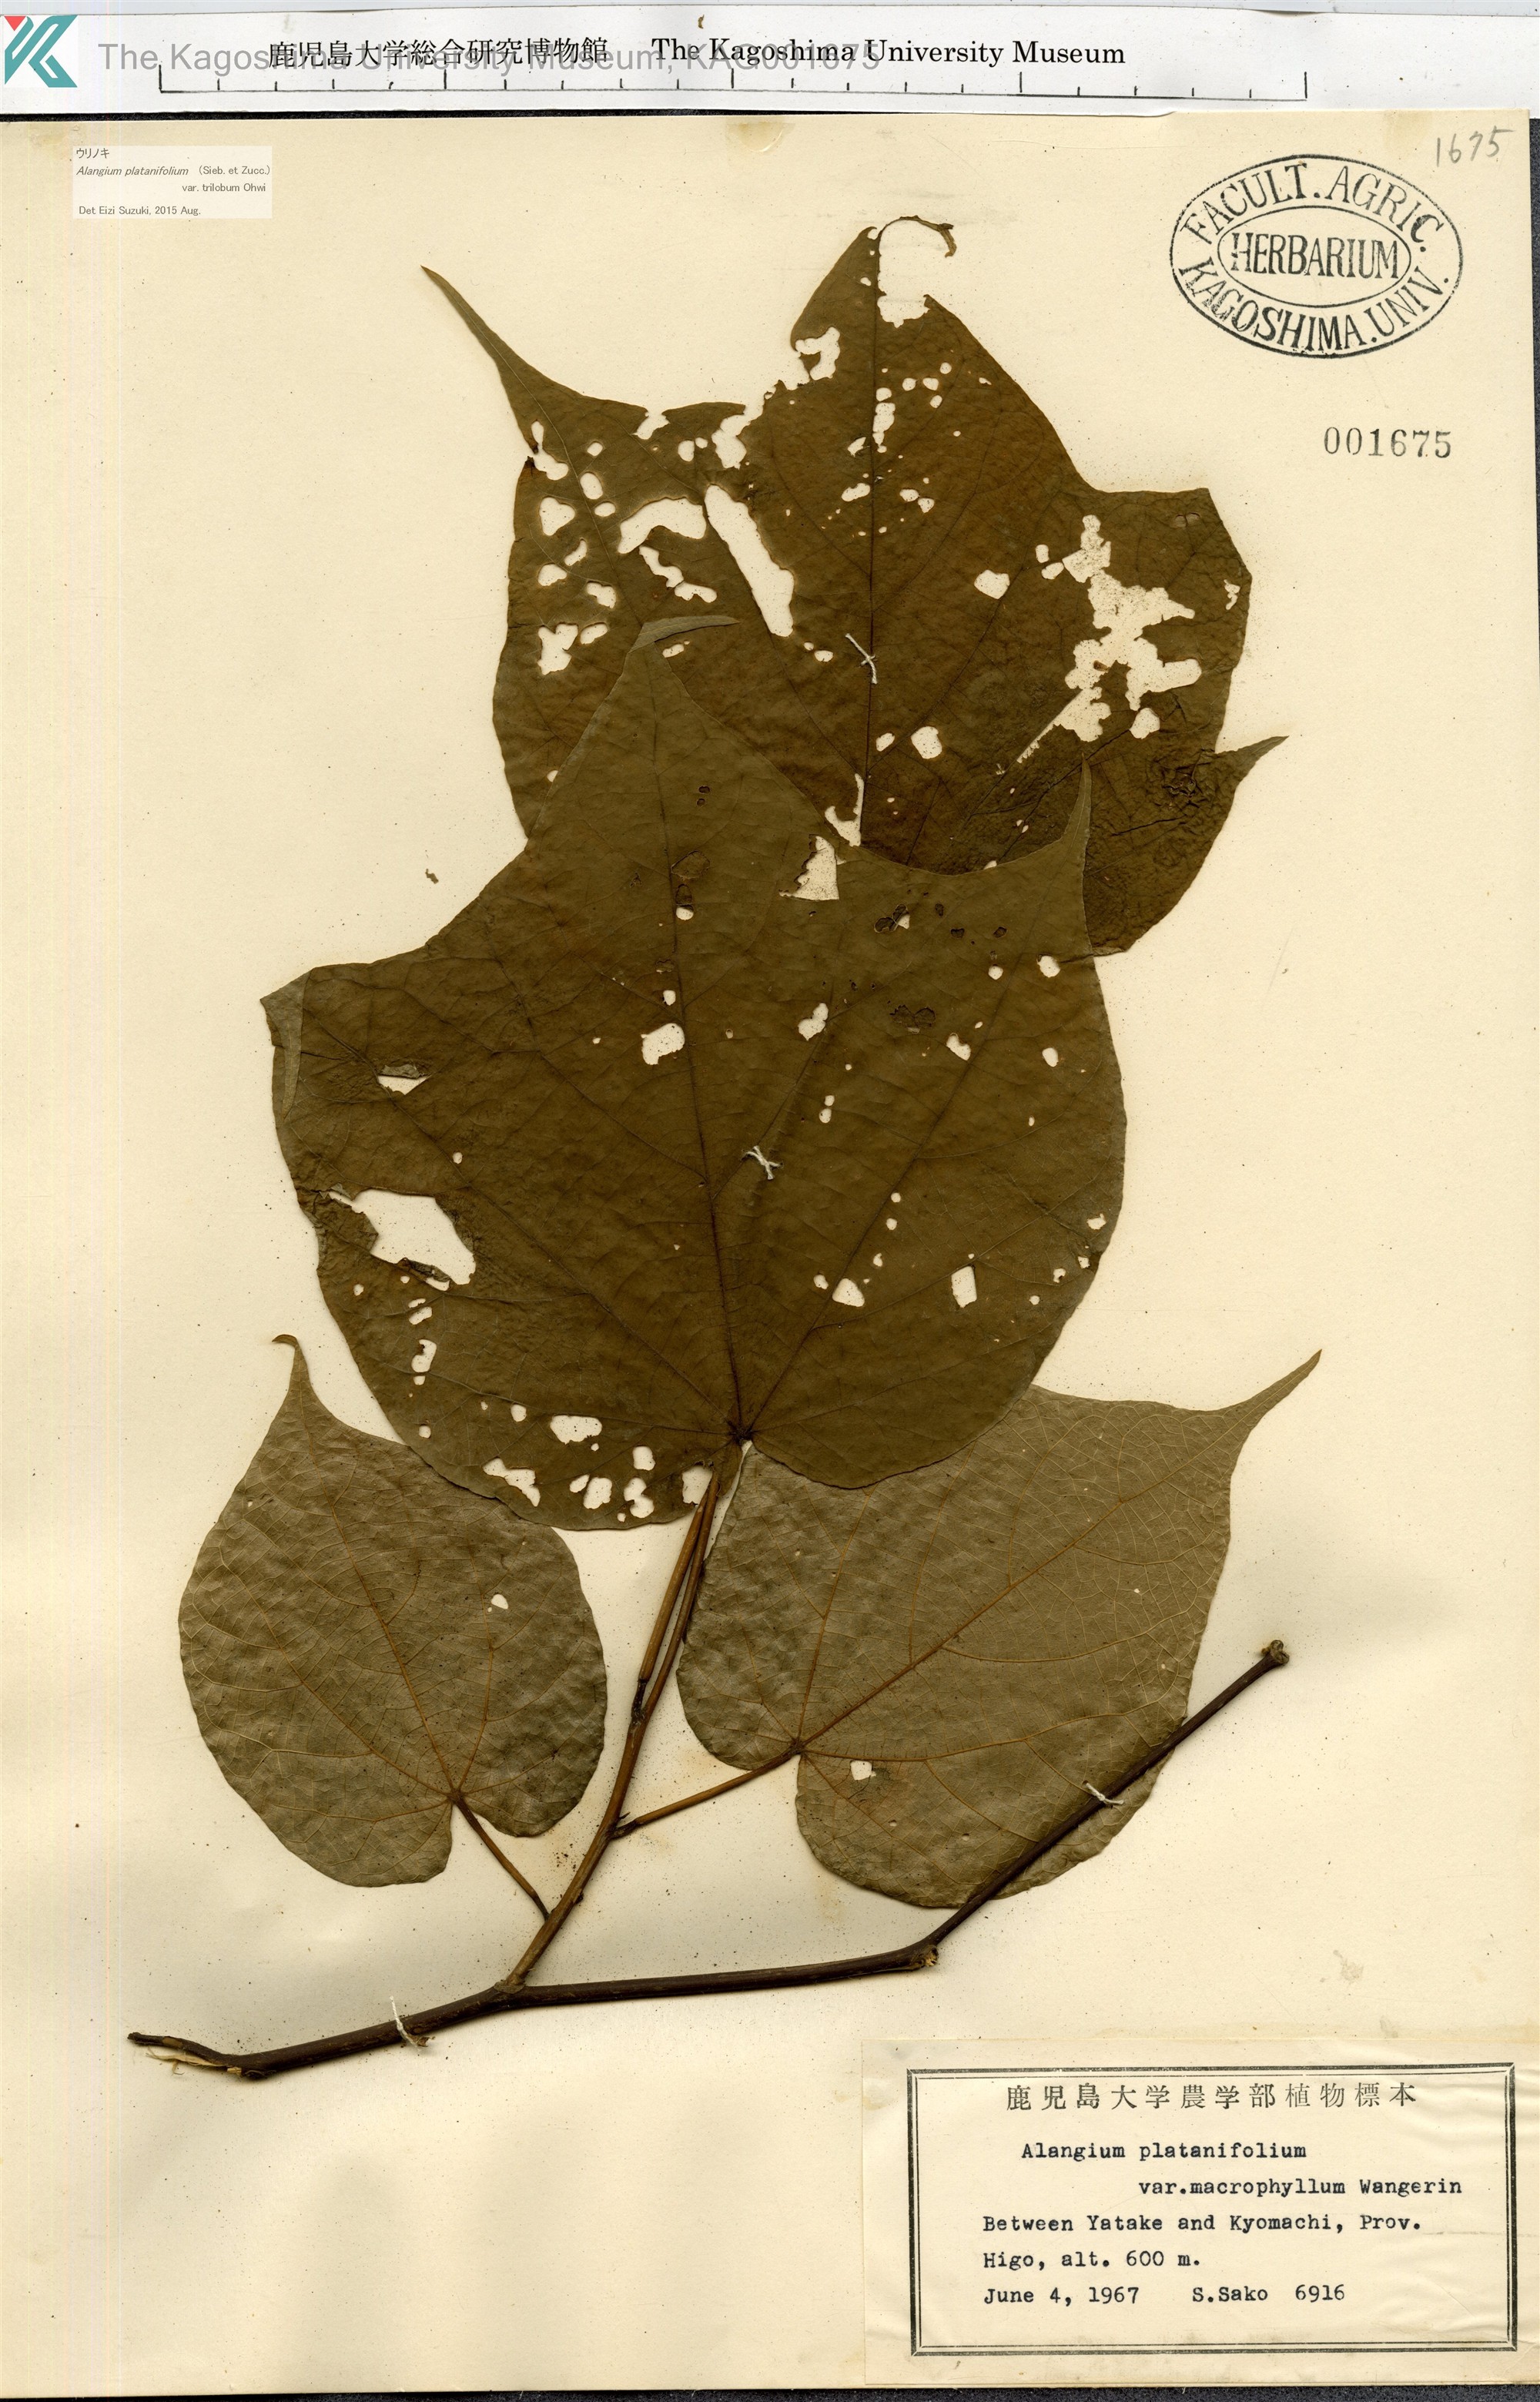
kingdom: Plantae
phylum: Tracheophyta
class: Magnoliopsida
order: Cornales
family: Cornaceae
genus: Alangium
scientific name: Alangium platanifolium
